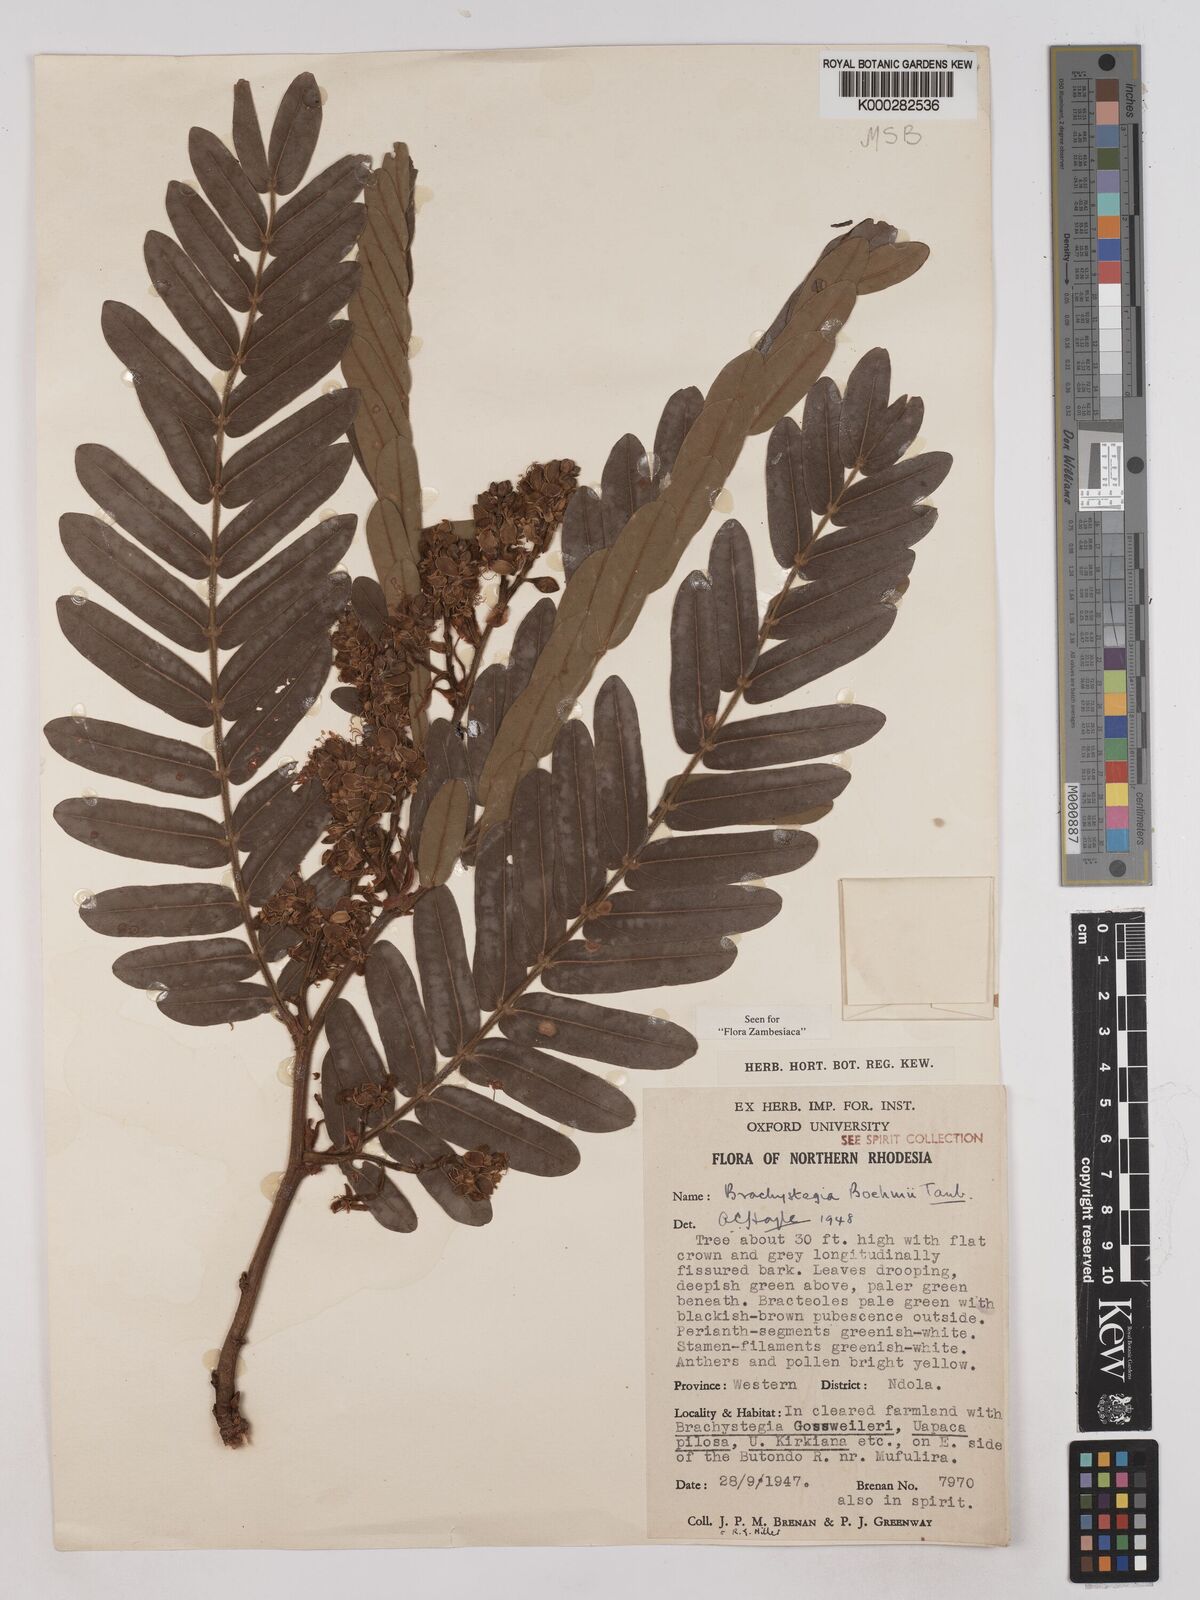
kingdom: Plantae
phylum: Tracheophyta
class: Magnoliopsida
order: Fabales
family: Fabaceae
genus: Brachystegia
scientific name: Brachystegia boehmii
